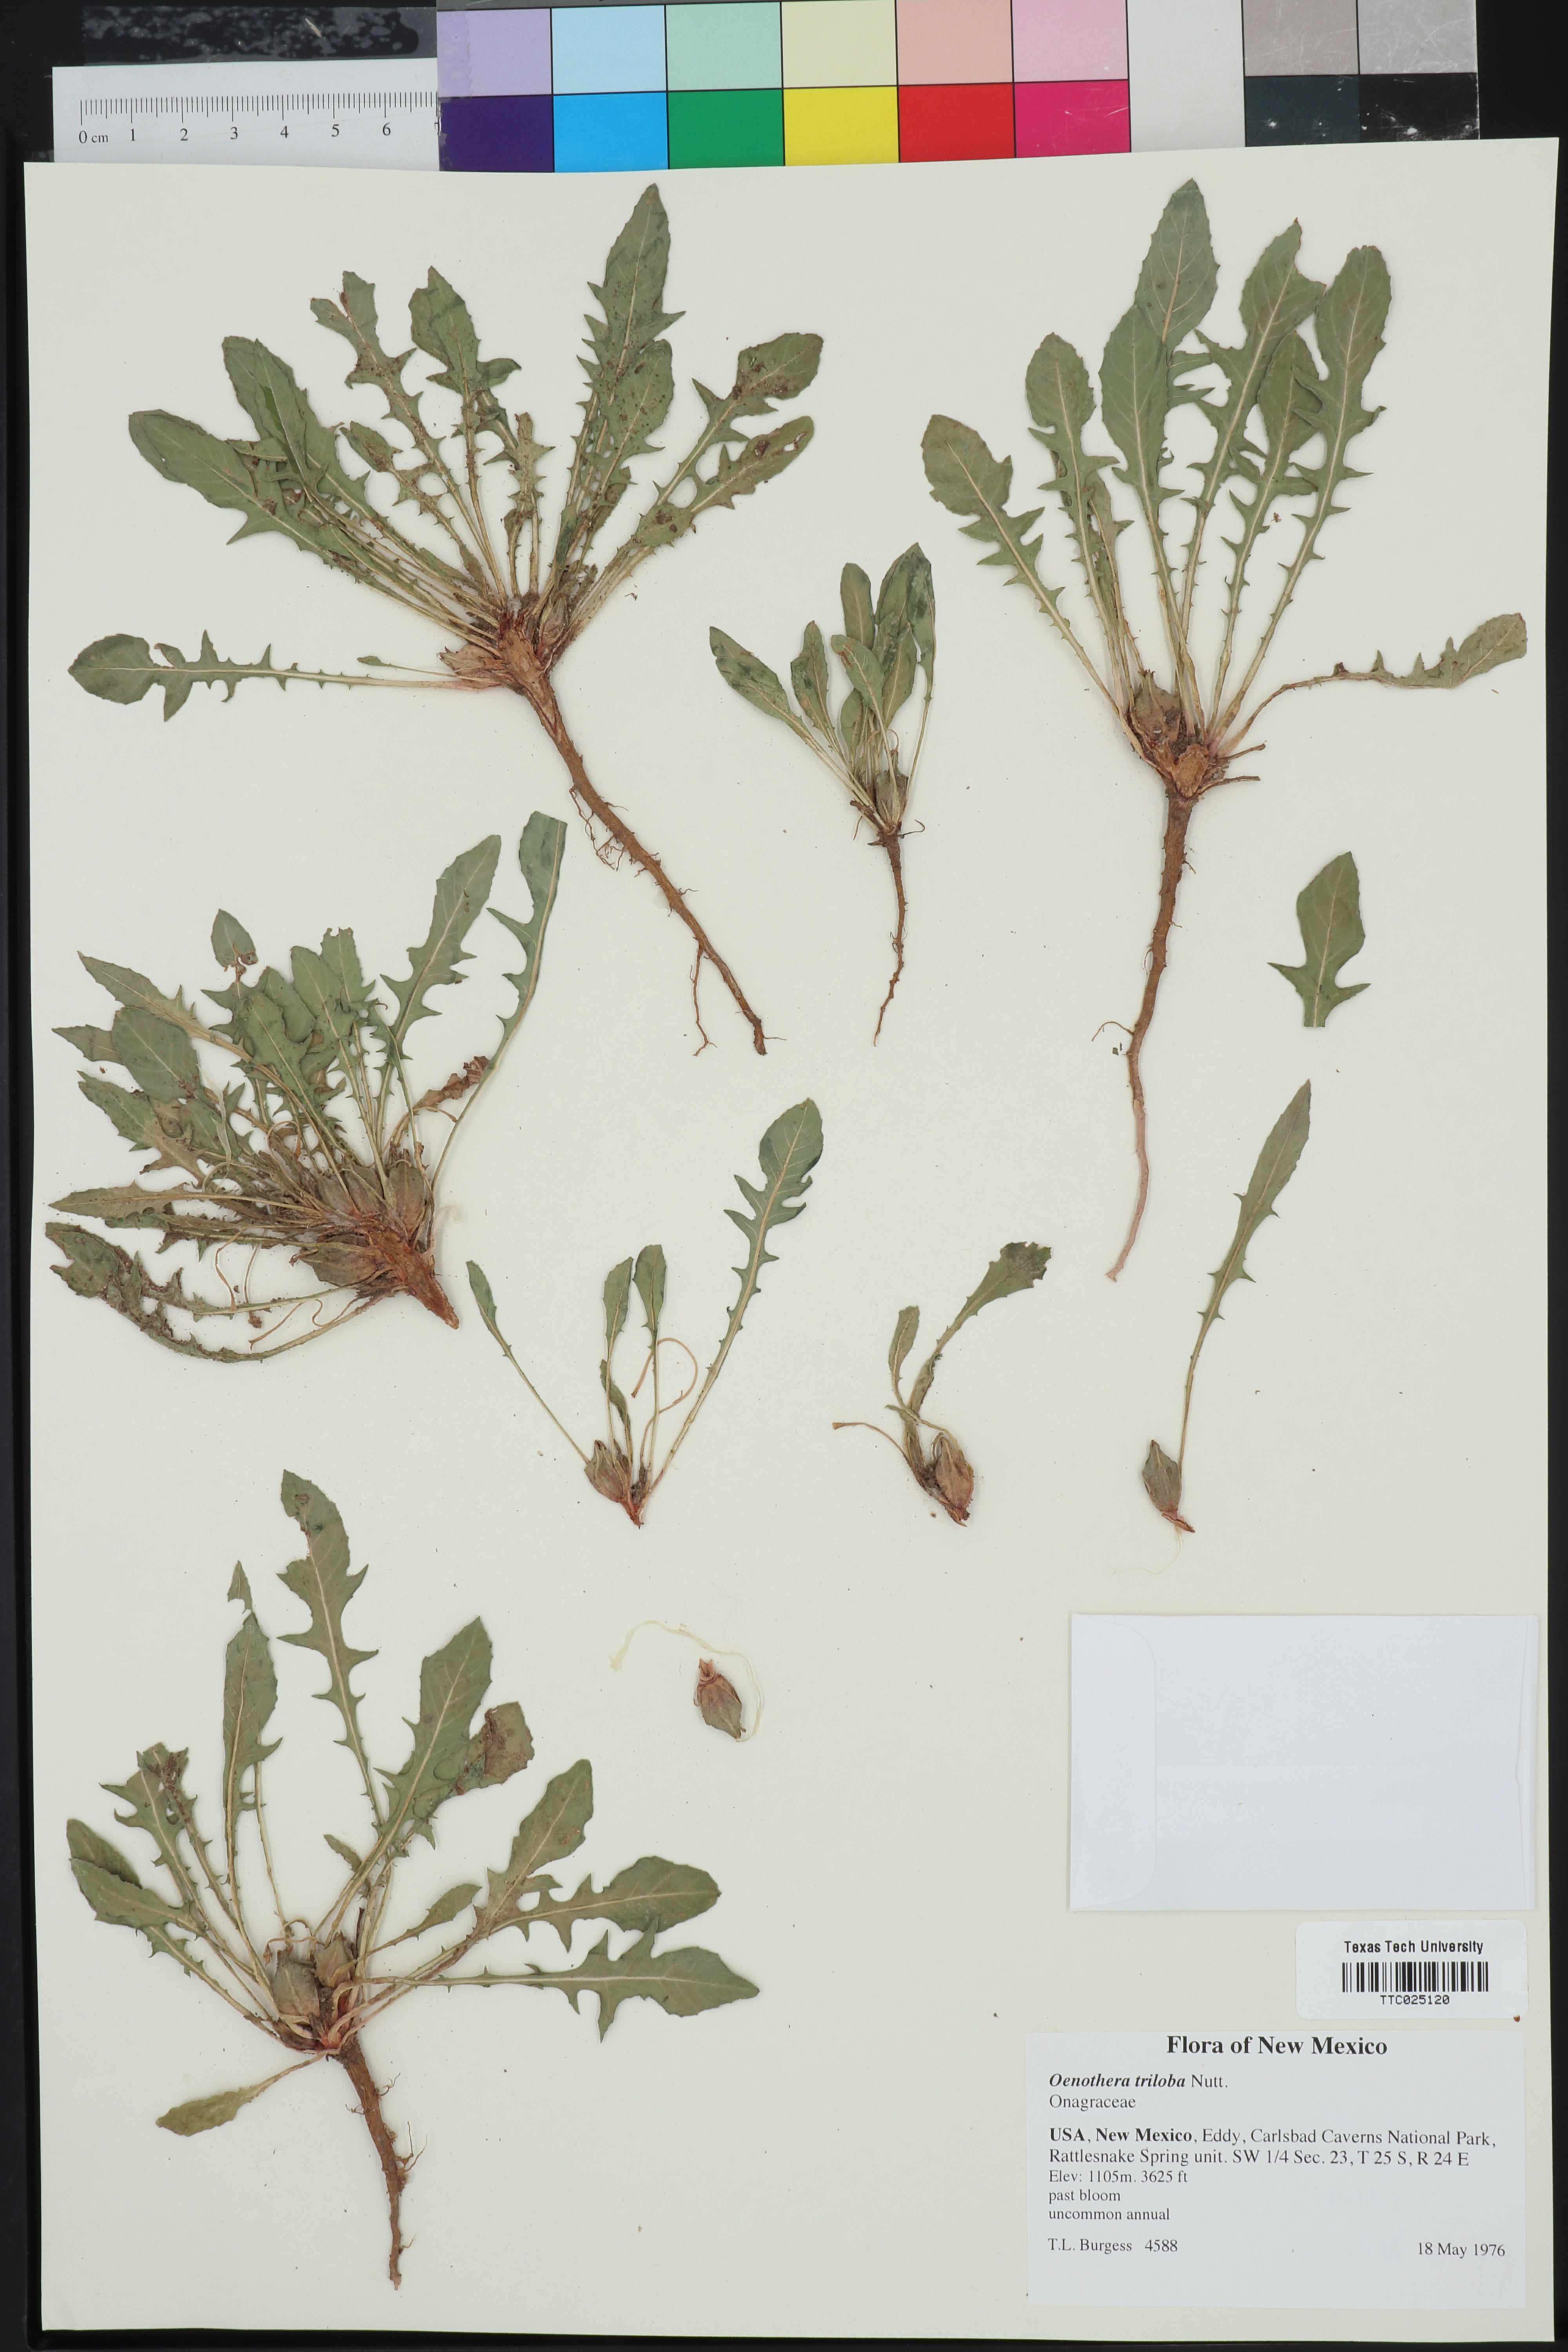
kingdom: Plantae
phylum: Tracheophyta
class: Magnoliopsida
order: Myrtales
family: Onagraceae
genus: Oenothera
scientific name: Oenothera triloba
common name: Sessile evening-primrose
